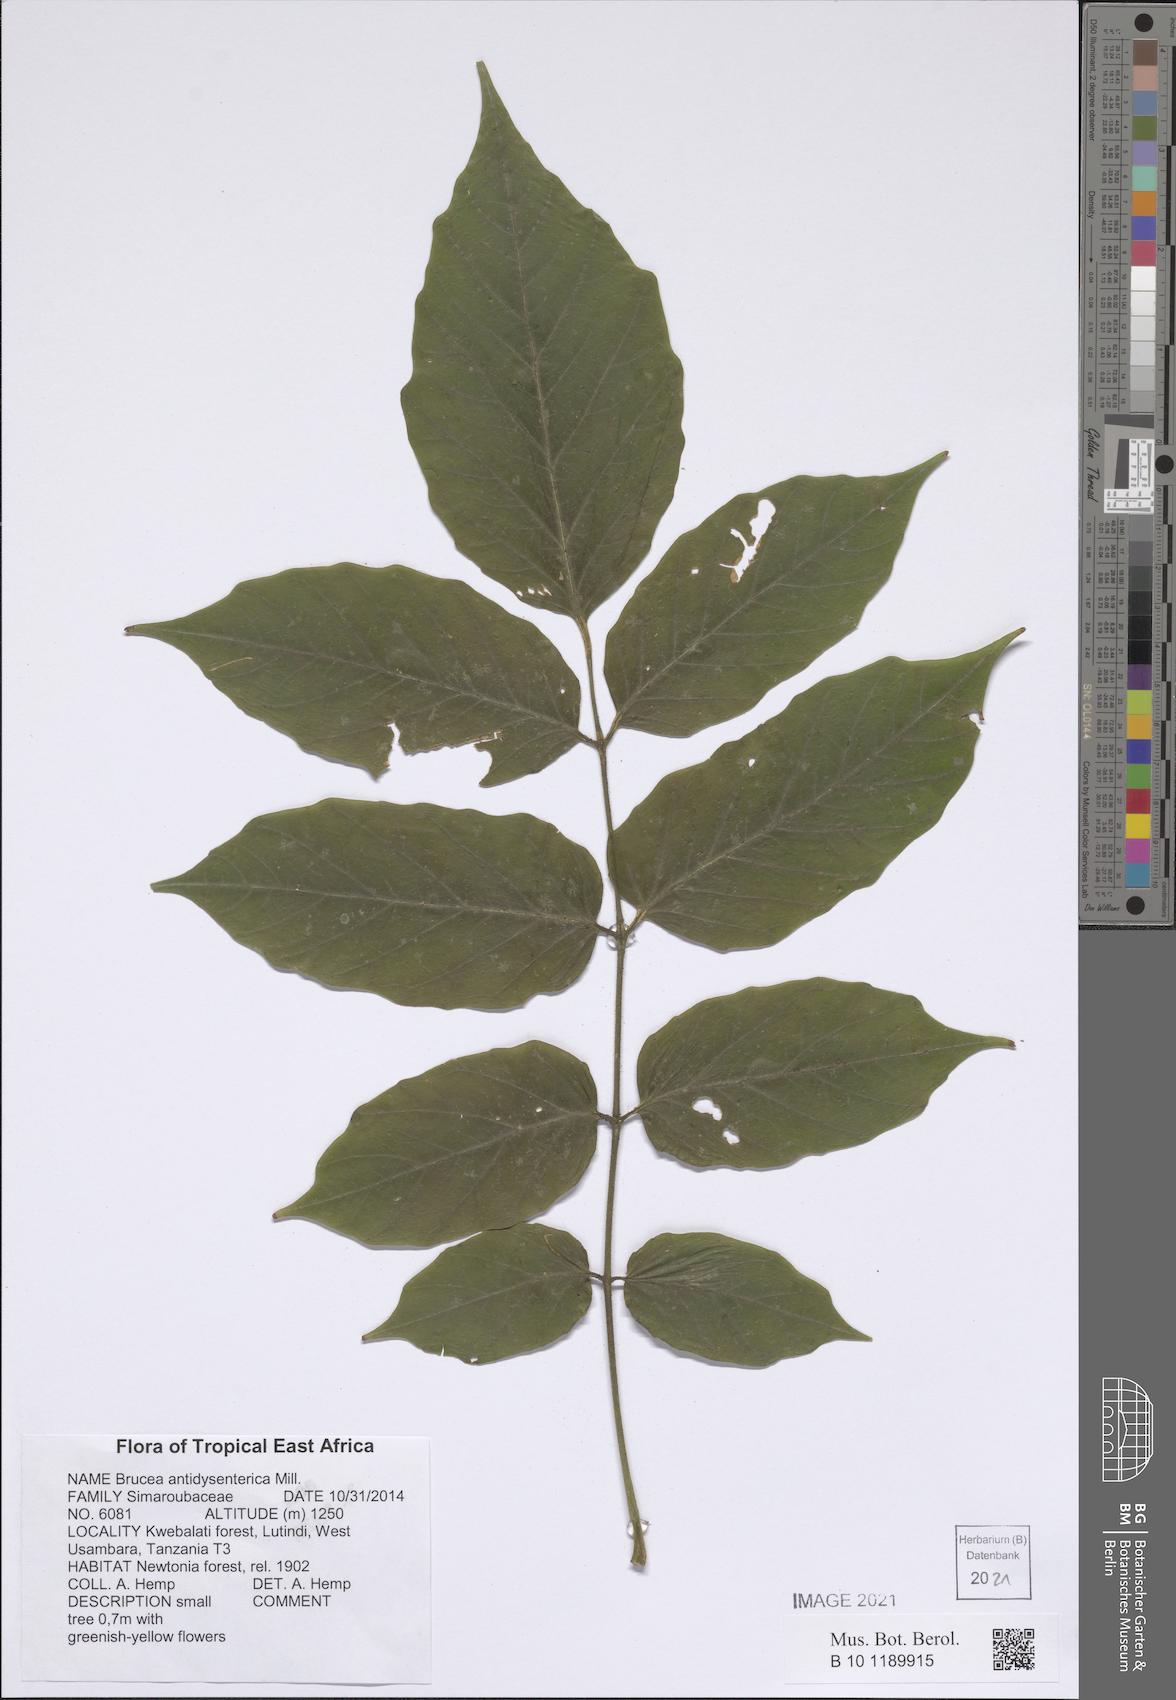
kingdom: Plantae
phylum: Tracheophyta
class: Magnoliopsida
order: Sapindales
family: Simaroubaceae
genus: Brucea
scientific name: Brucea antidysenterica
